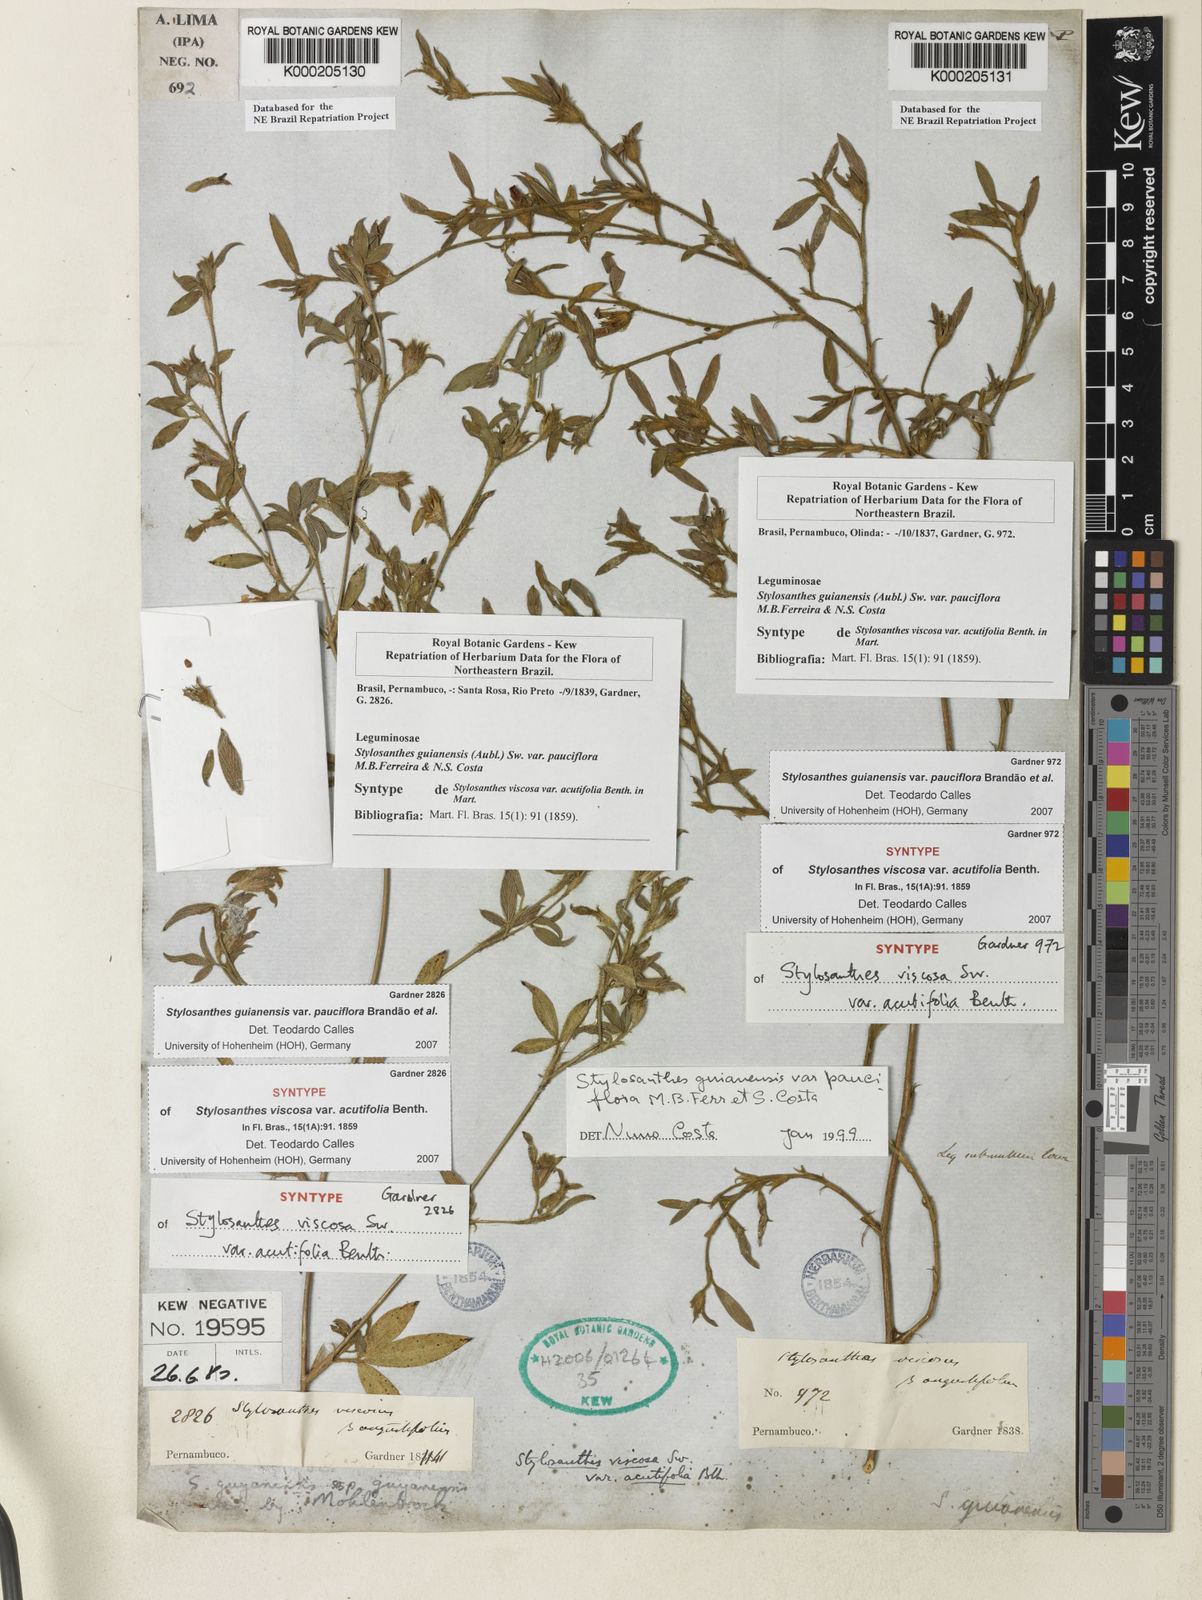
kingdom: Plantae
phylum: Tracheophyta
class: Magnoliopsida
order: Fabales
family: Fabaceae
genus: Stylosanthes
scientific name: Stylosanthes guianensis
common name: Pencil flower
